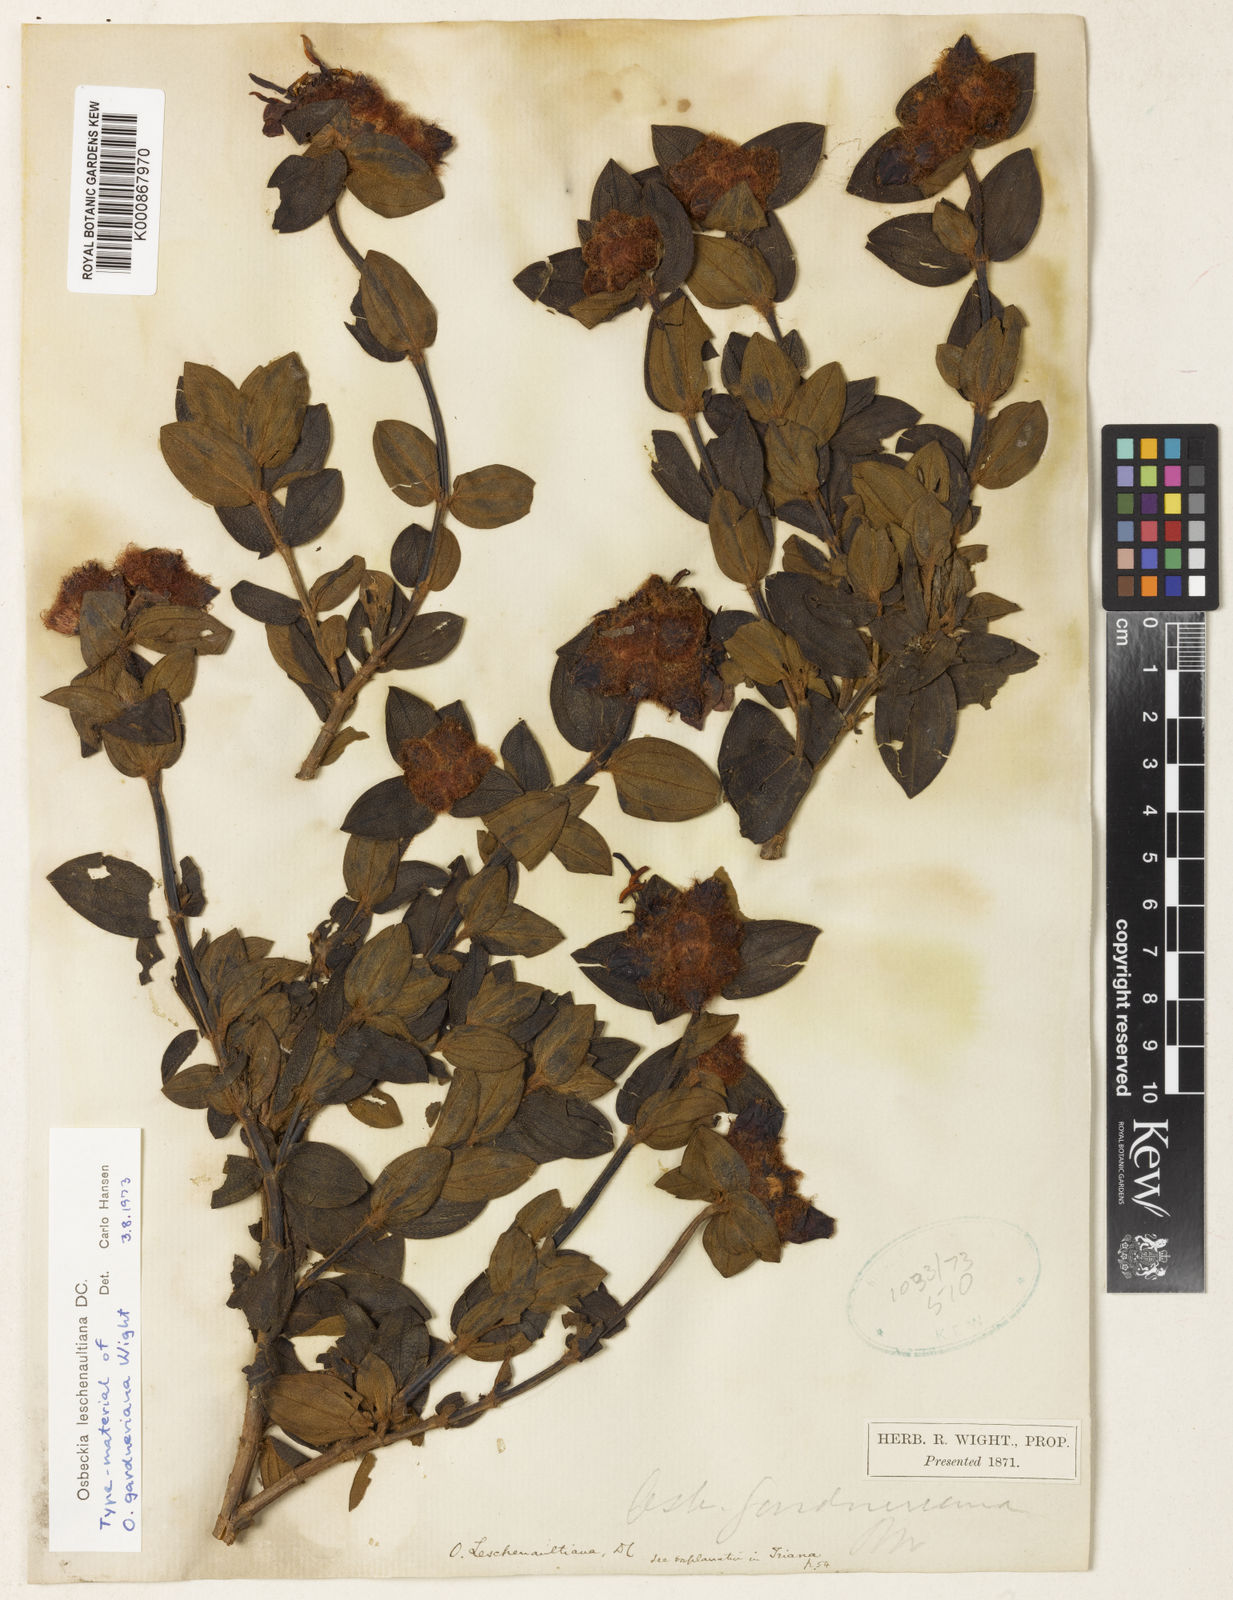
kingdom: Plantae
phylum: Tracheophyta
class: Magnoliopsida
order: Myrtales
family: Melastomataceae
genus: Osbeckia
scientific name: Osbeckia leschenaultiana
